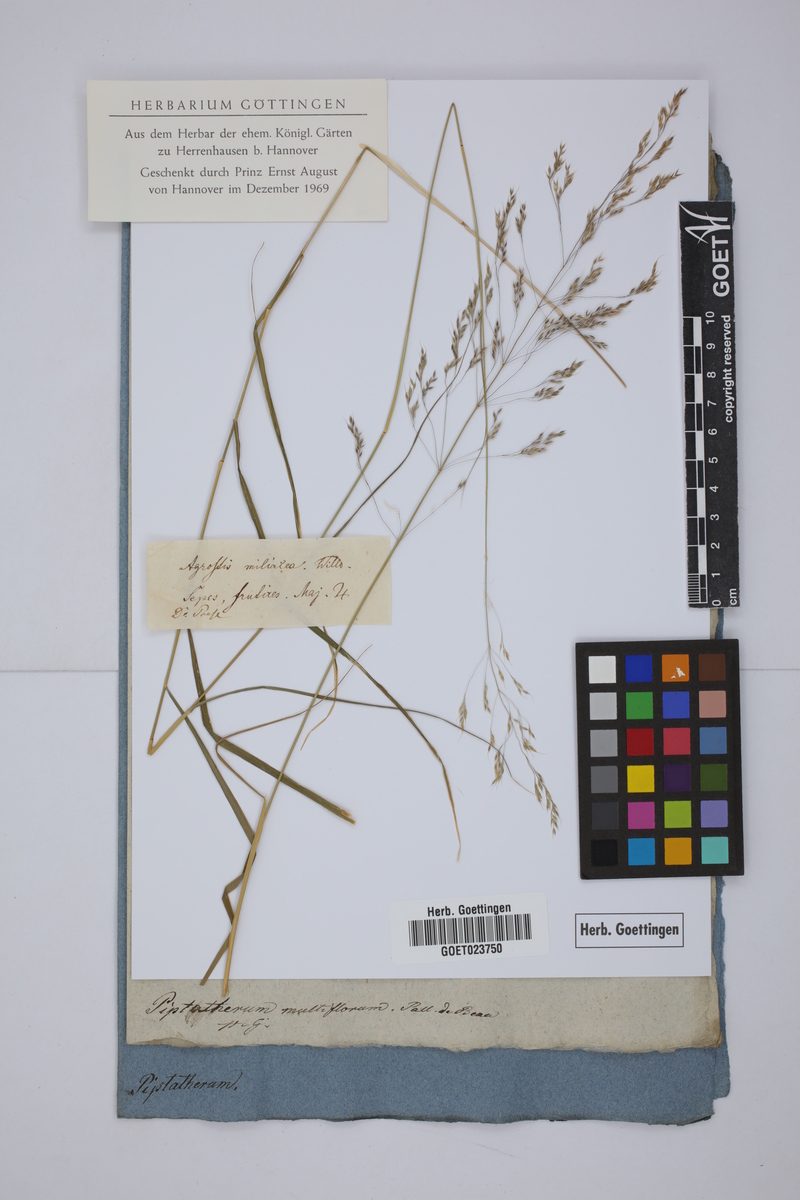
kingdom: Plantae
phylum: Tracheophyta
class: Liliopsida
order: Poales
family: Poaceae
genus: Oloptum
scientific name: Oloptum miliaceum
